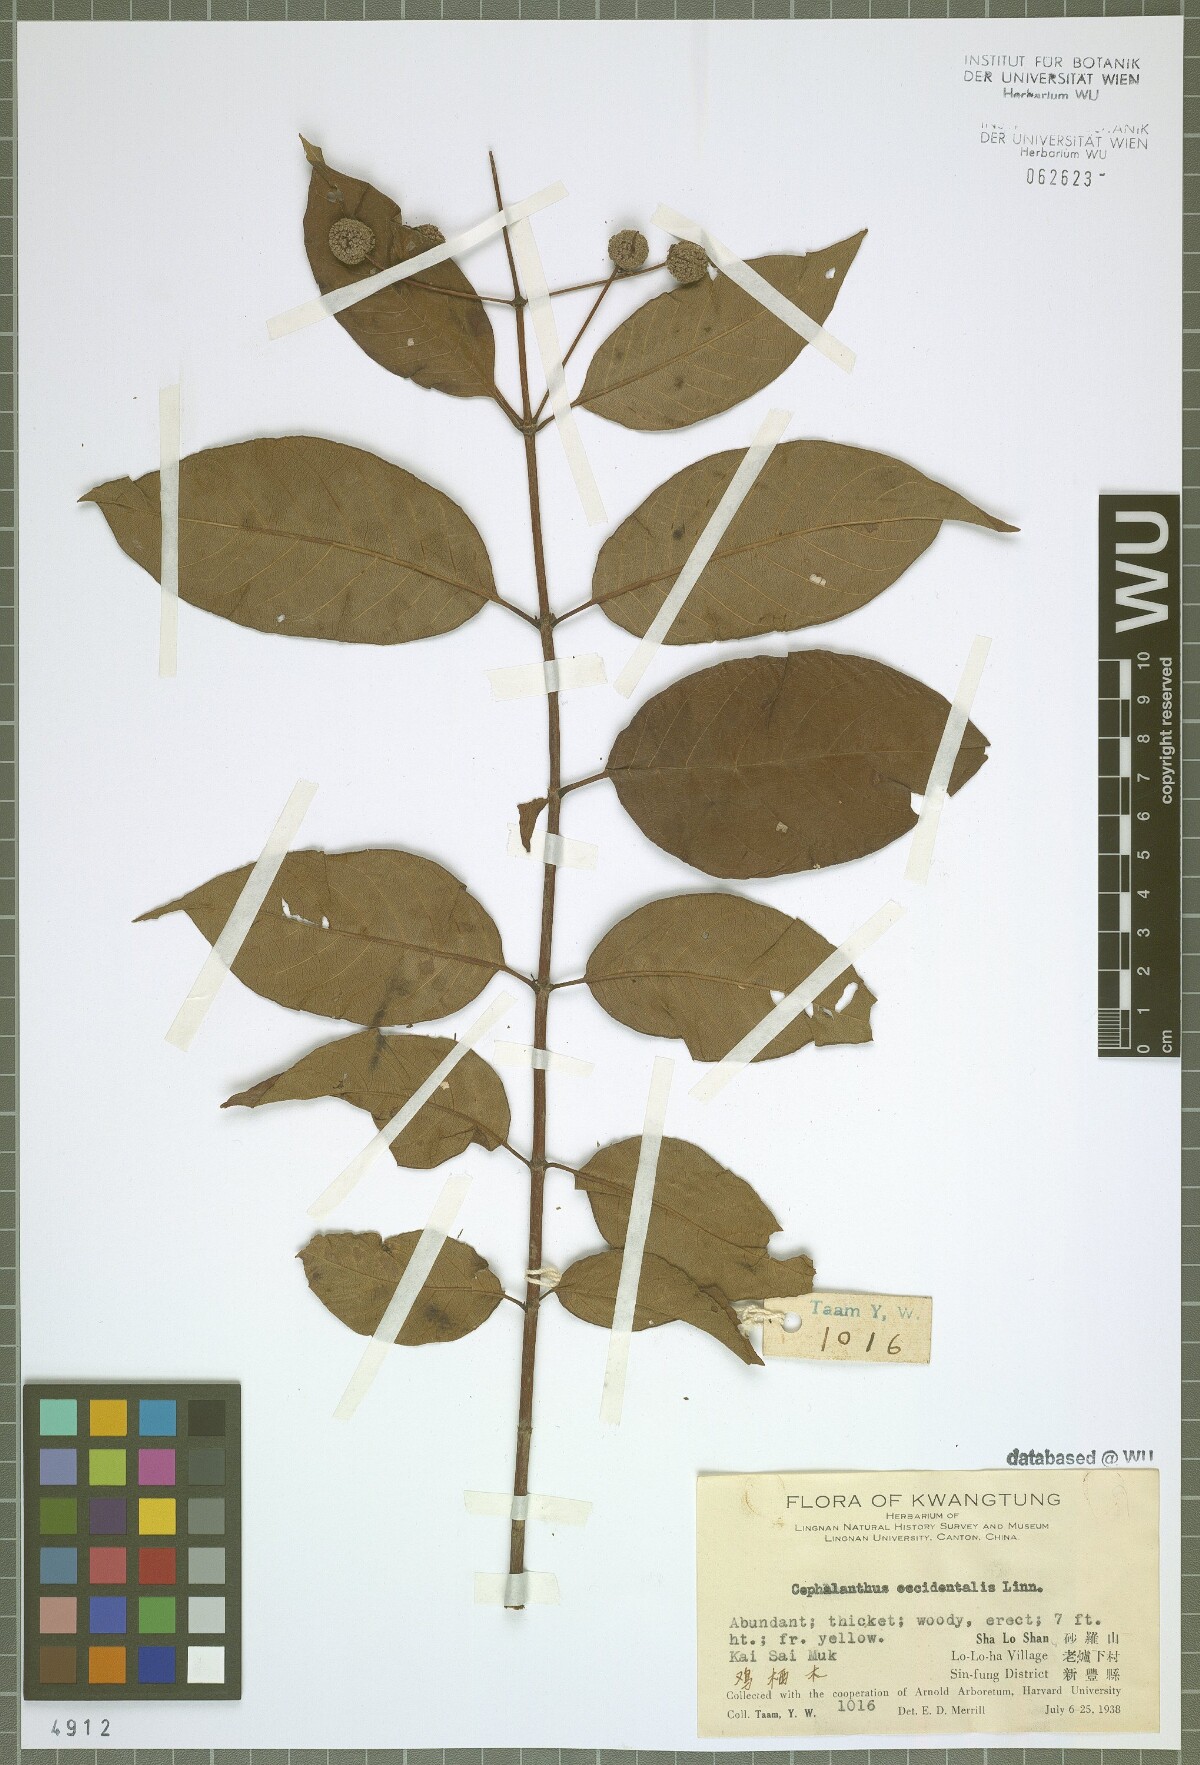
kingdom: Plantae
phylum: Tracheophyta
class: Magnoliopsida
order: Gentianales
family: Rubiaceae
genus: Cephalanthus
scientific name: Cephalanthus occidentalis
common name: Button-willow
